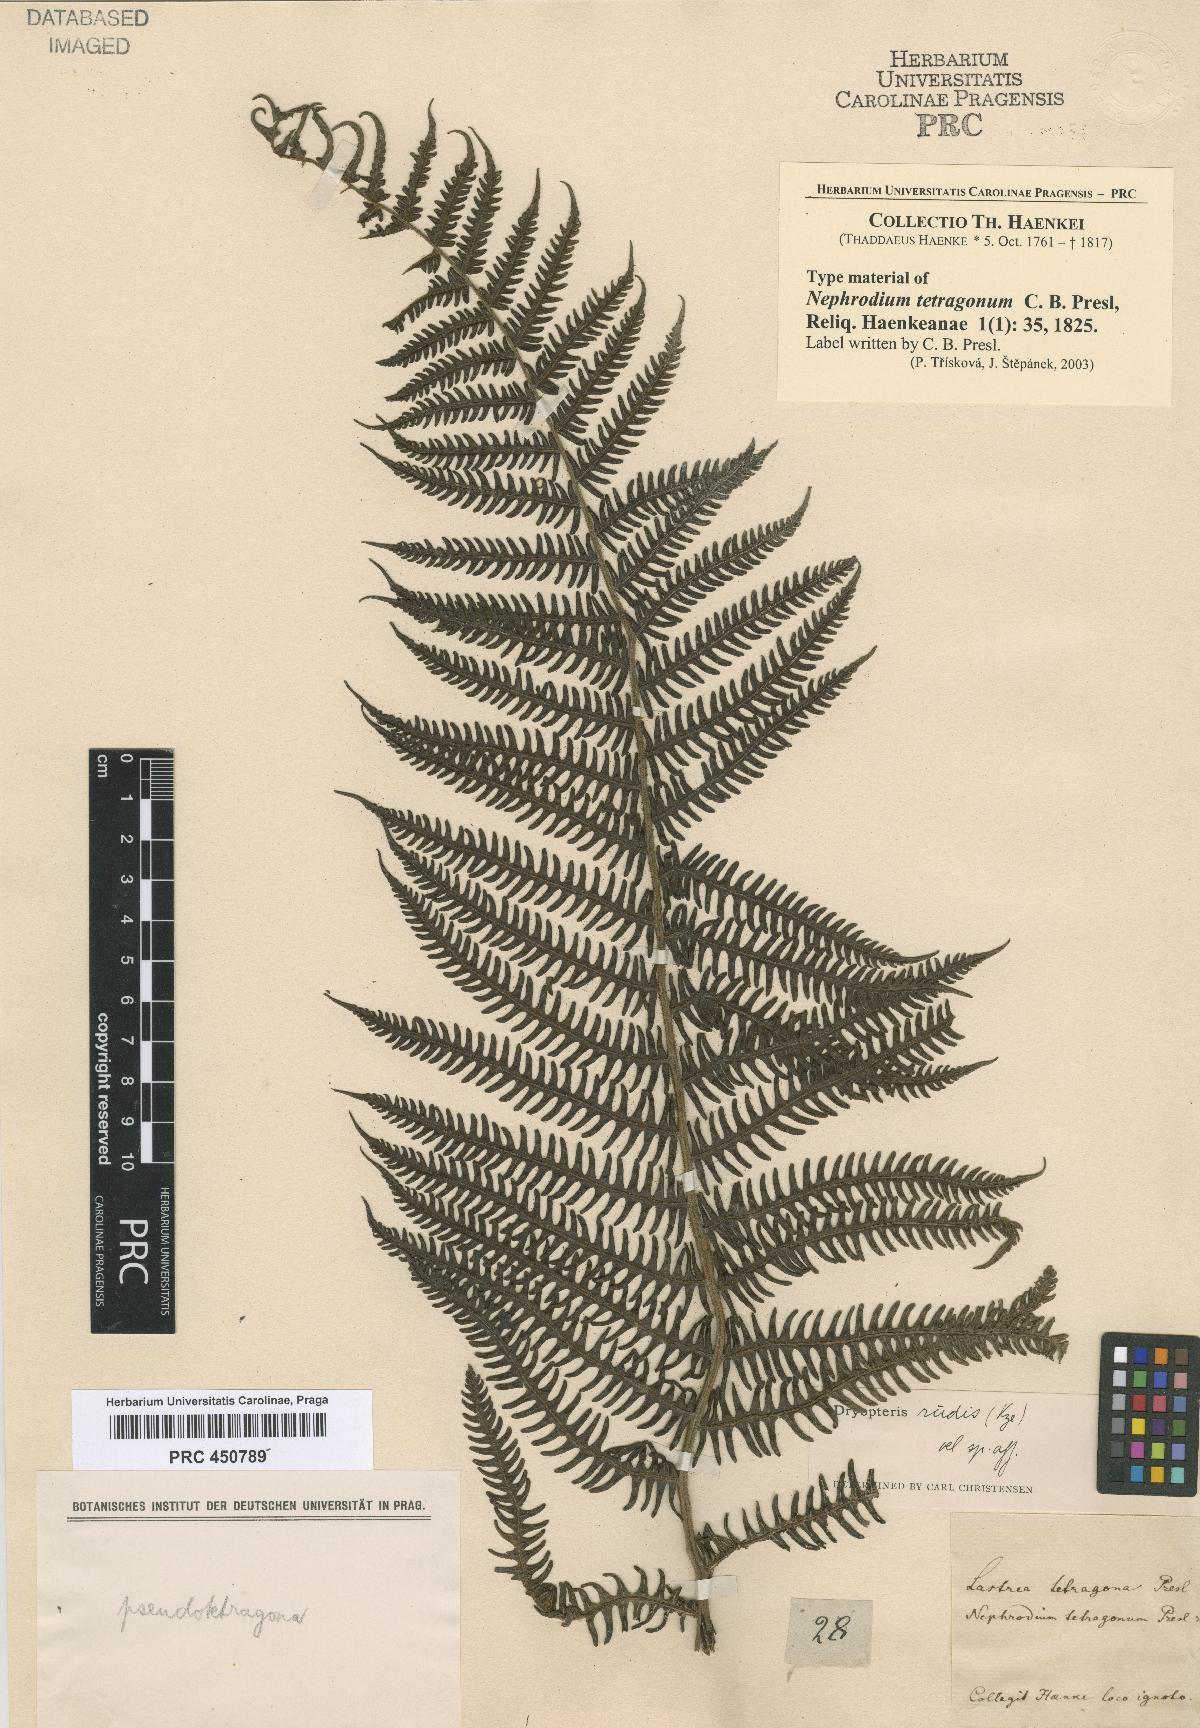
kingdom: Plantae
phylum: Tracheophyta
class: Polypodiopsida
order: Polypodiales
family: Dryopteridaceae
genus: Nephrodium
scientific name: Nephrodium
